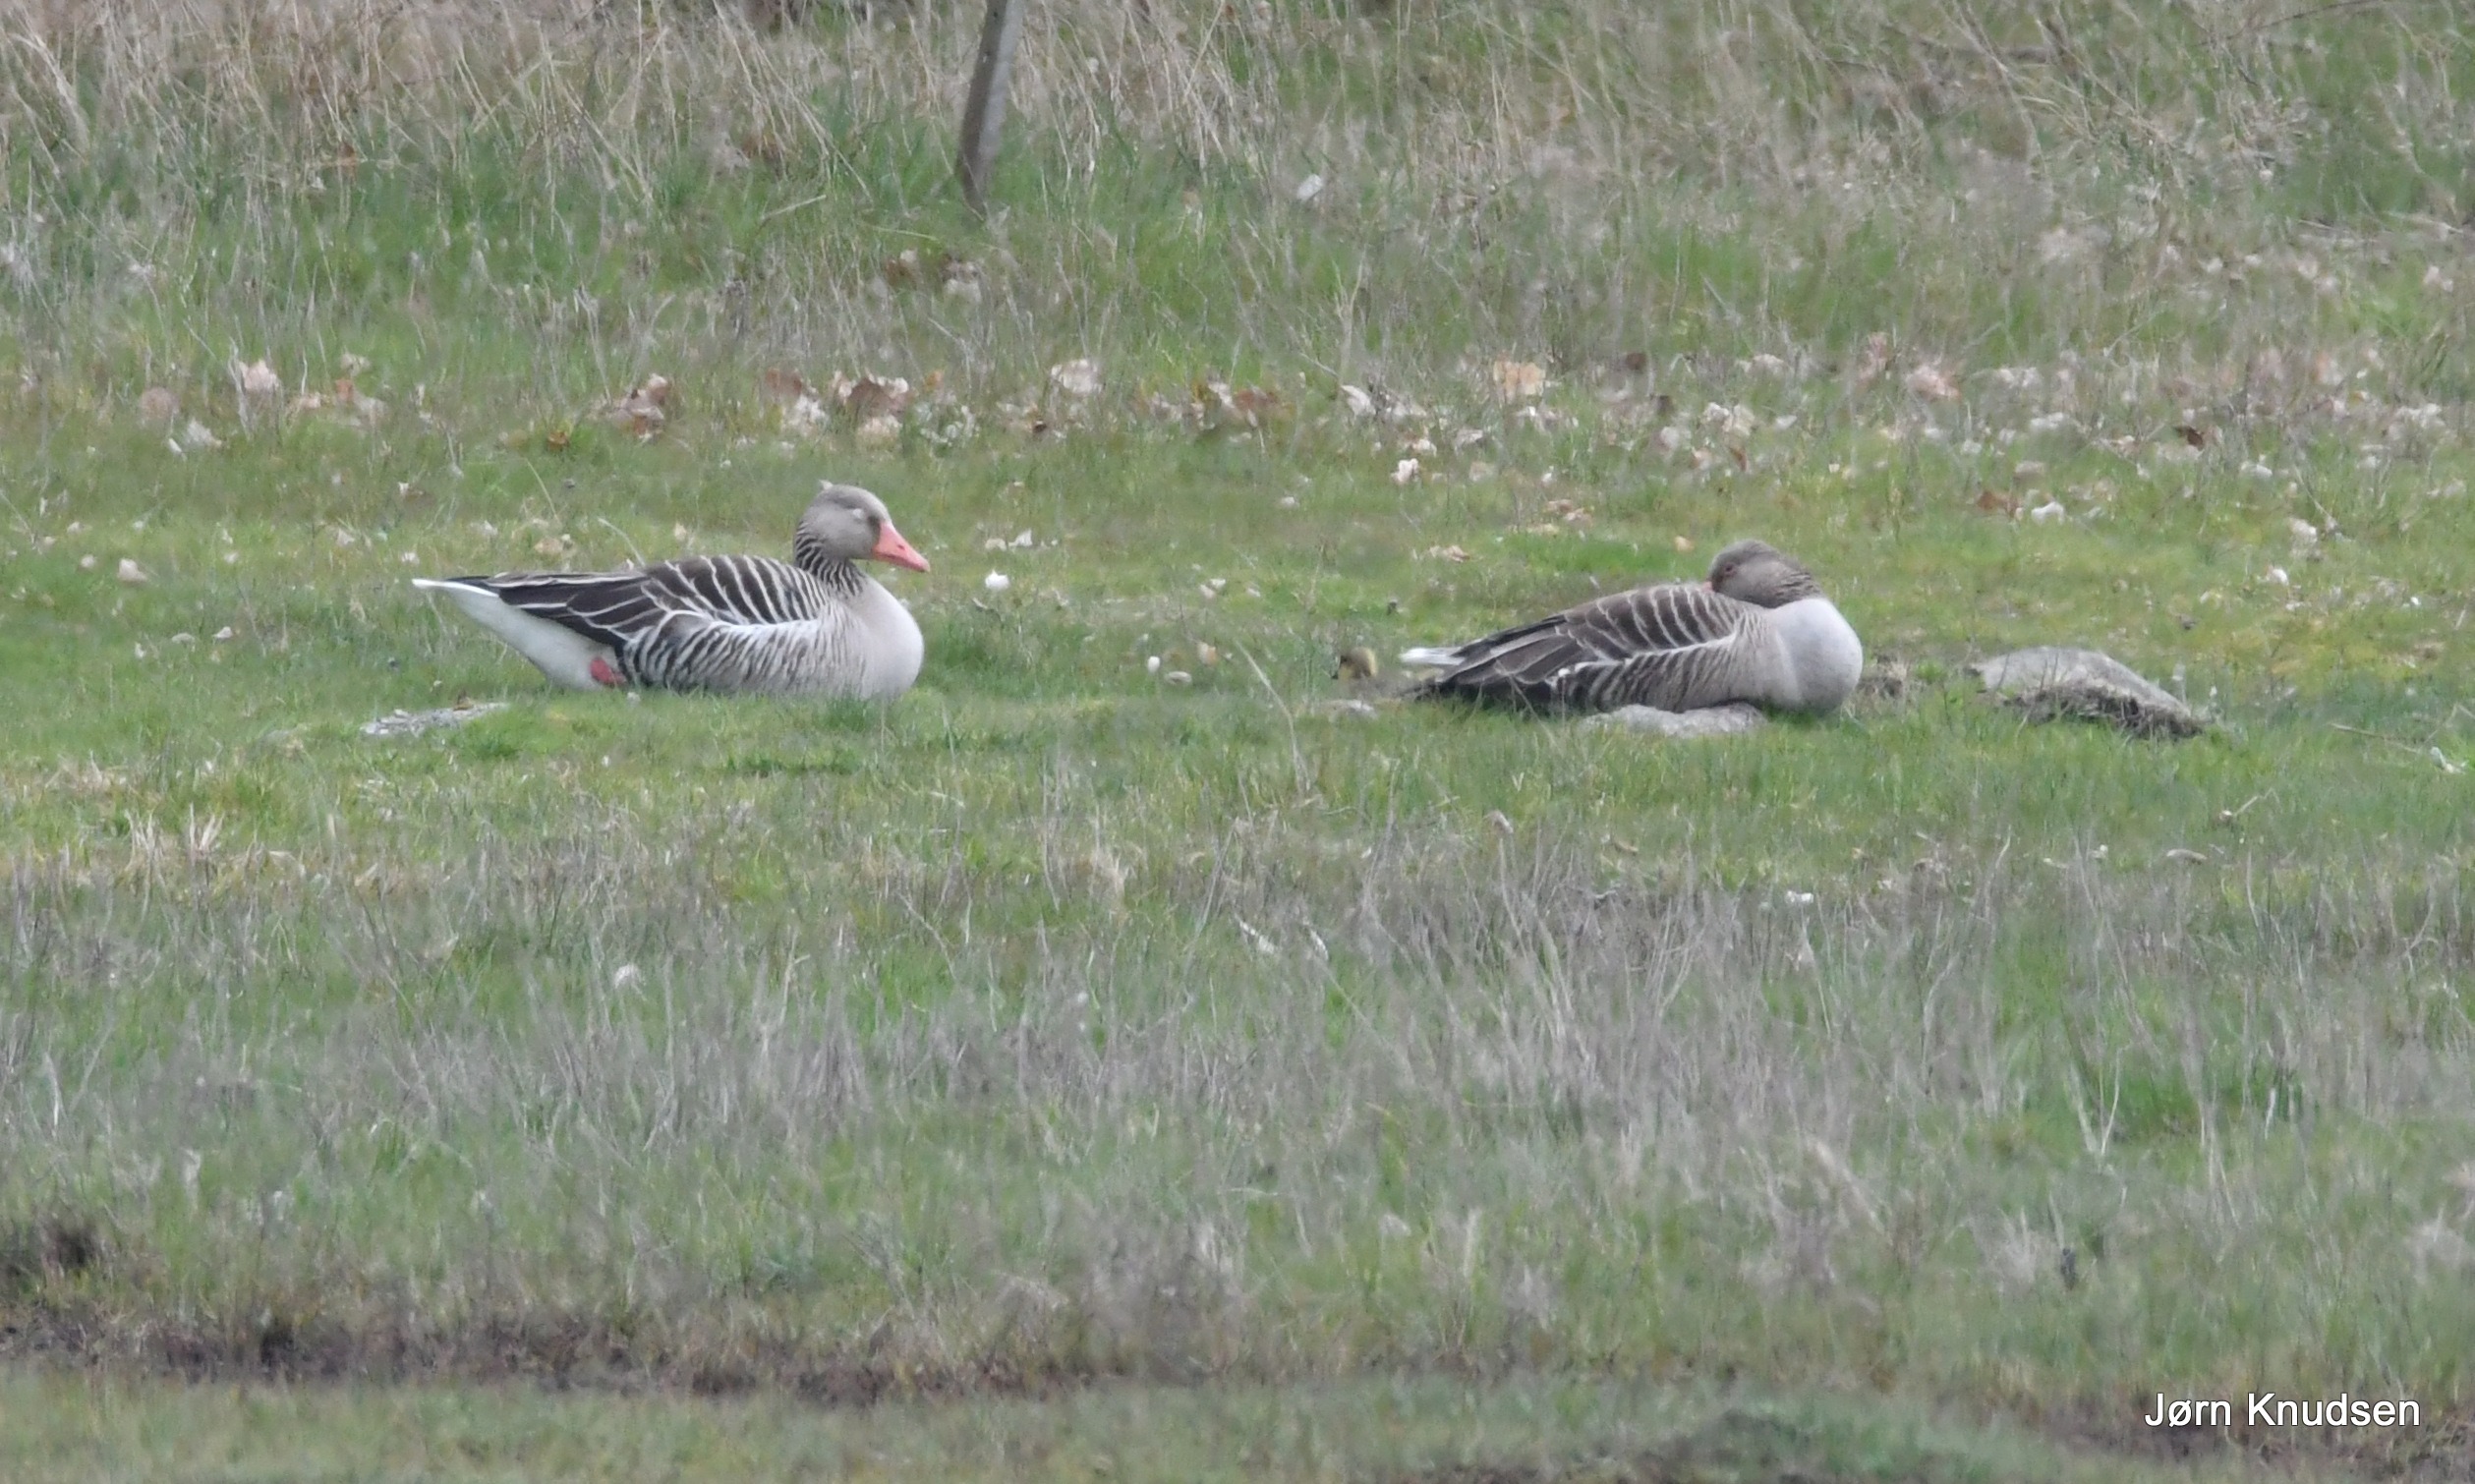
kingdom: Animalia
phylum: Chordata
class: Aves
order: Anseriformes
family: Anatidae
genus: Anser
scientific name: Anser anser
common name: Grågås
